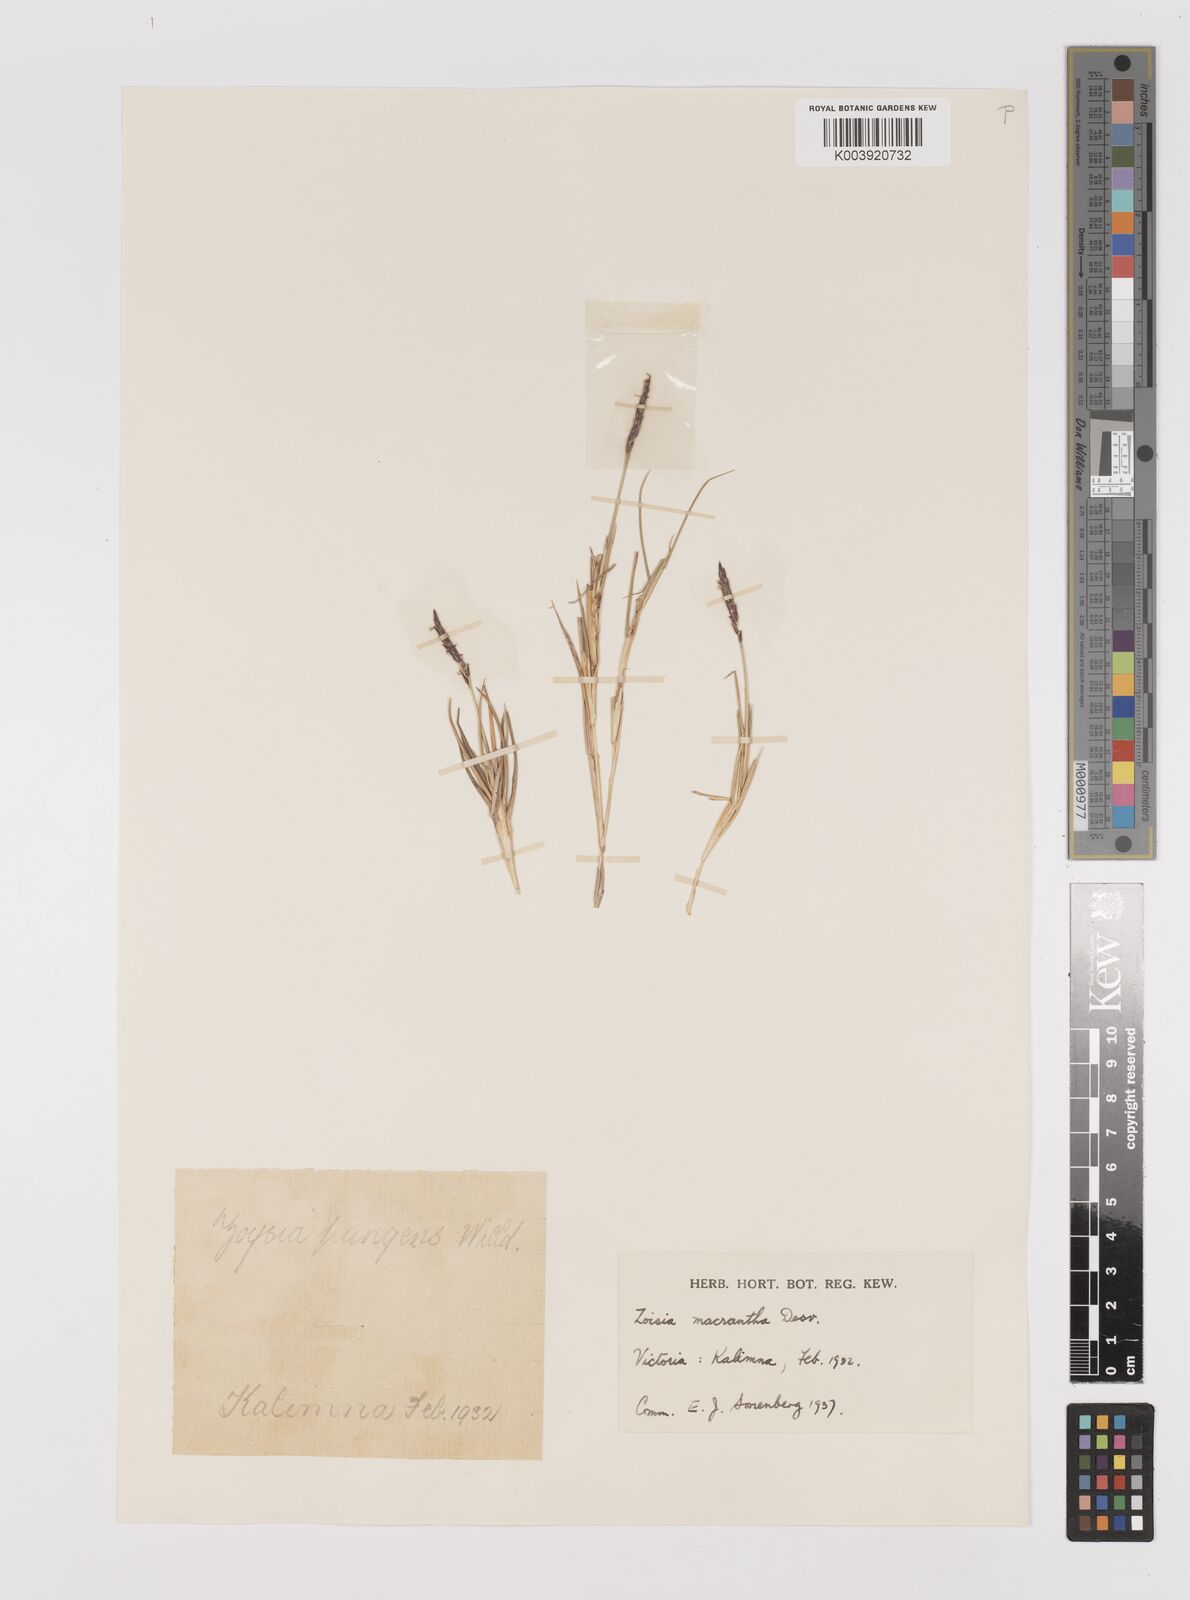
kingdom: Plantae
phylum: Tracheophyta
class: Liliopsida
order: Poales
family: Poaceae
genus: Zoysia
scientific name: Zoysia macrantha
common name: Korean lawn grass
